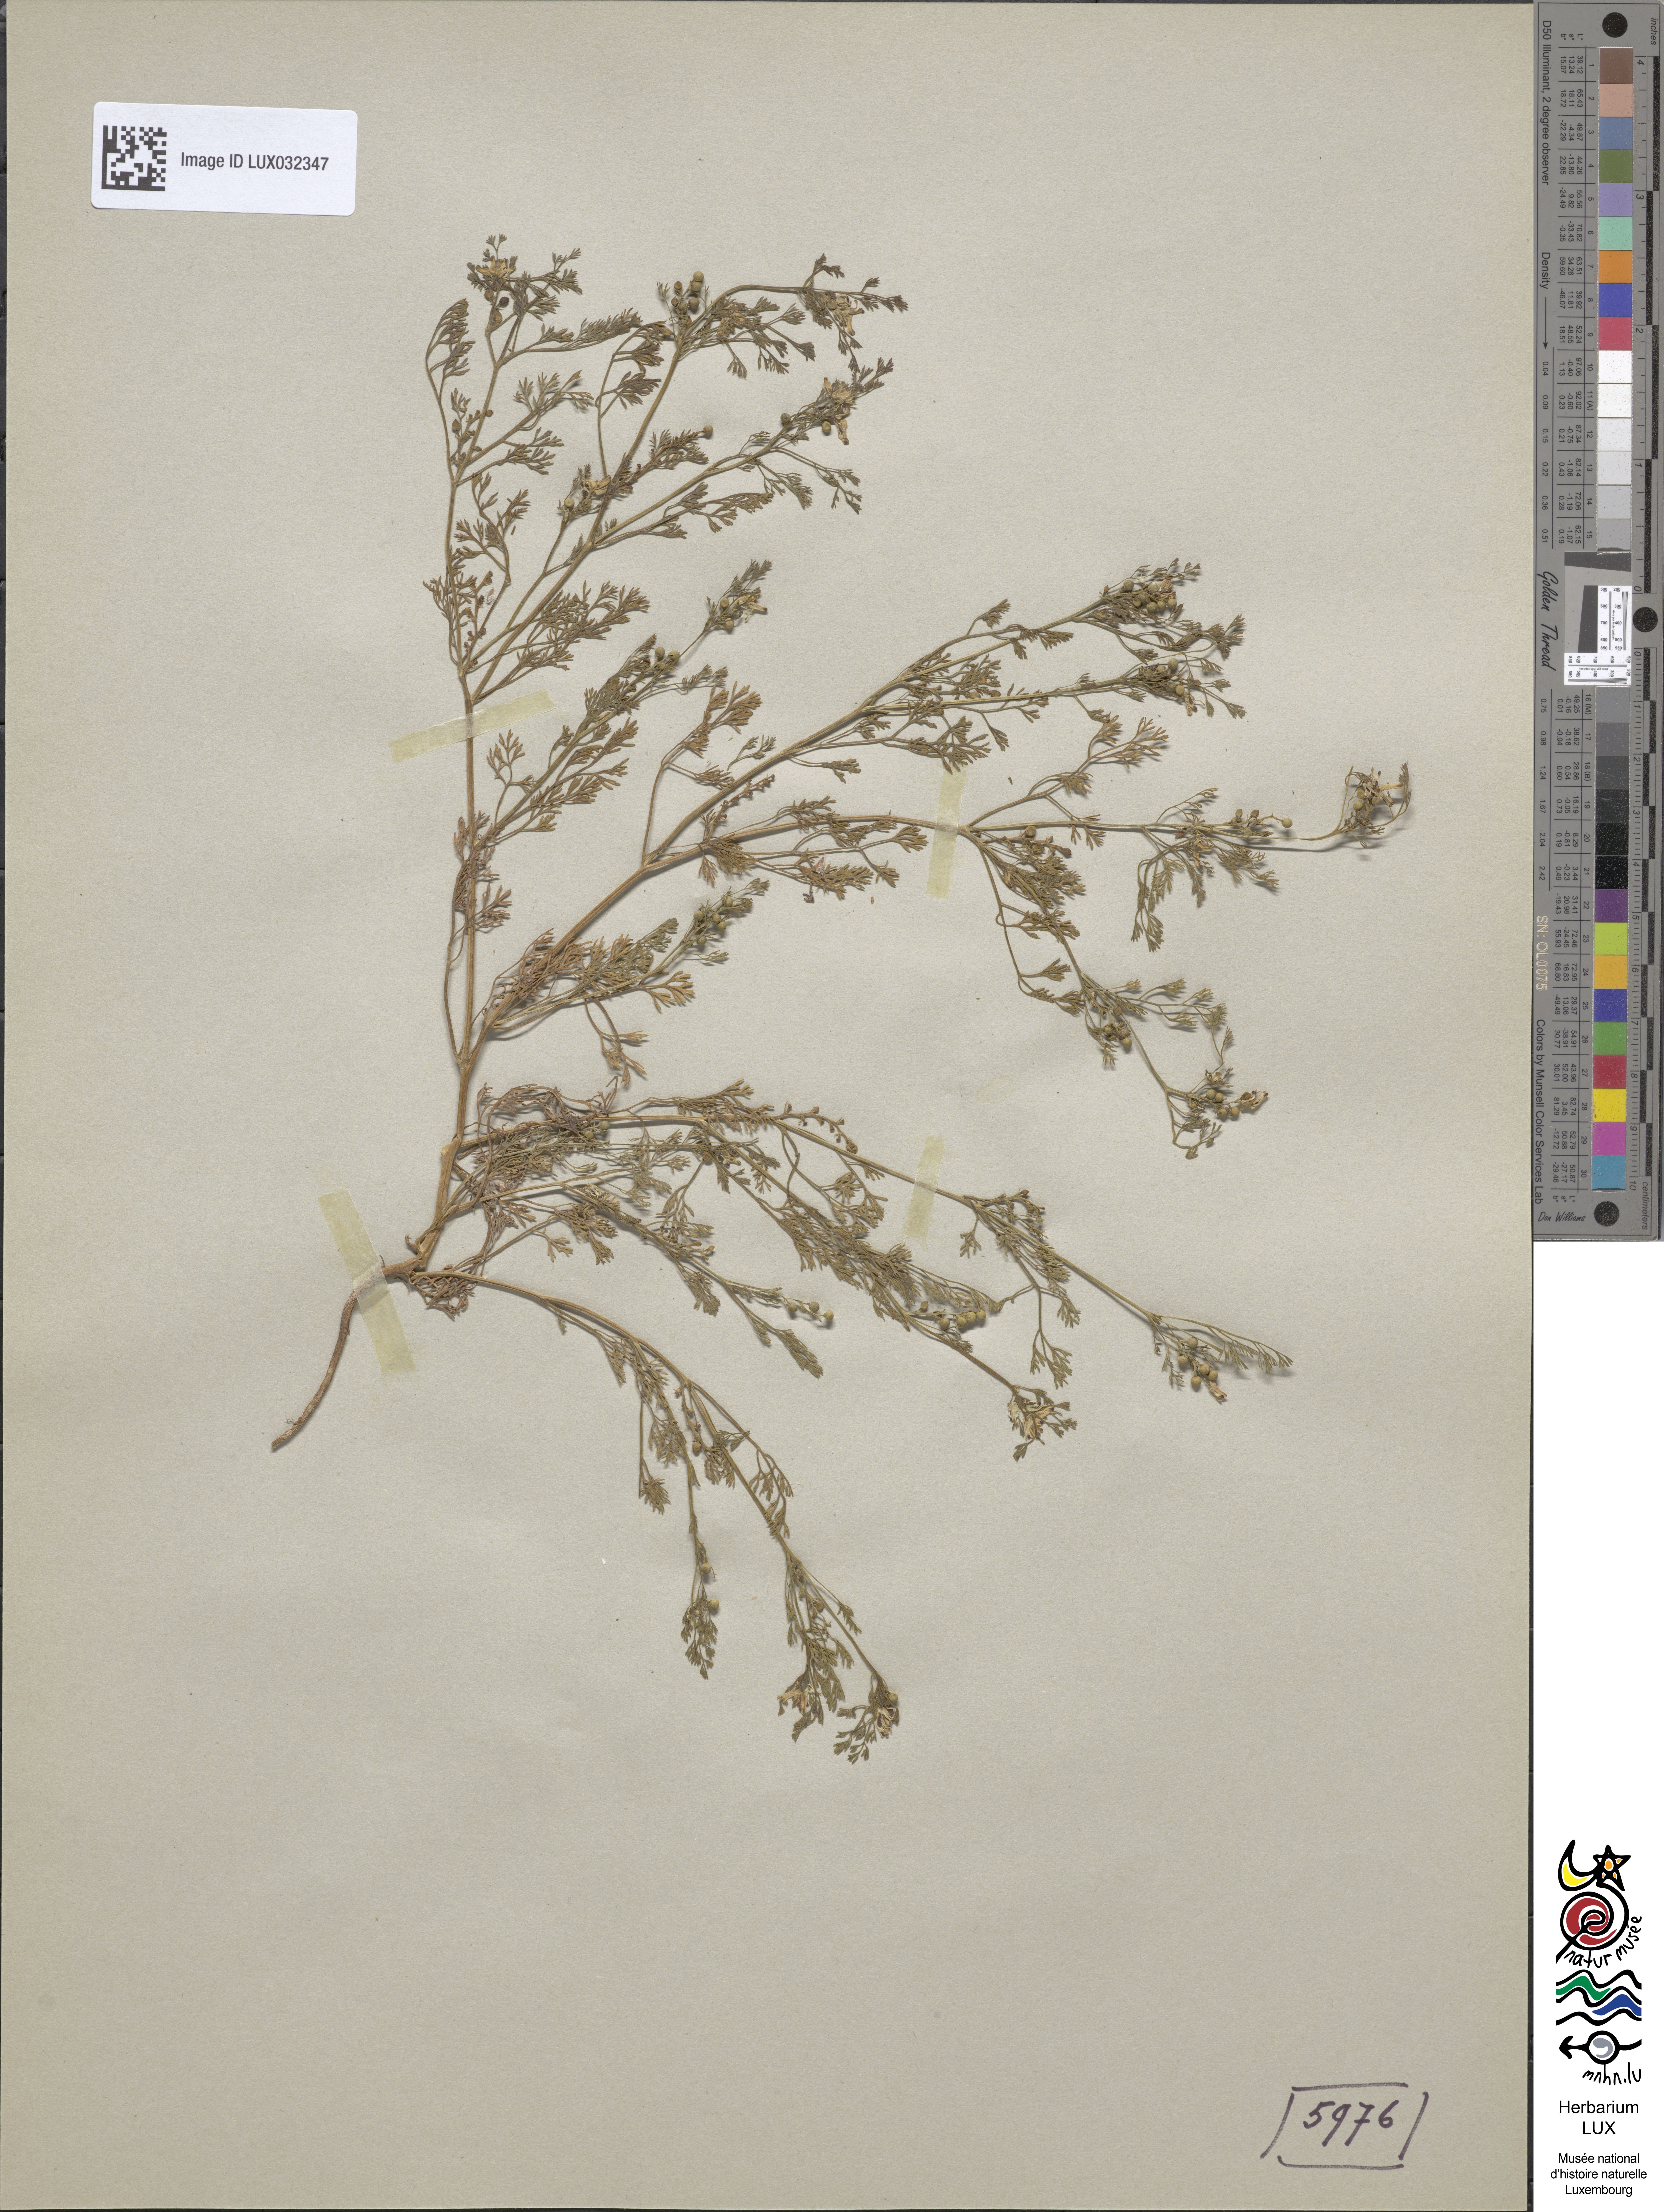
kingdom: Plantae
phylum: Tracheophyta
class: Magnoliopsida
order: Ranunculales
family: Papaveraceae
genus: Fumaria
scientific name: Fumaria parviflora
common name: Fine-leaved fumitory
